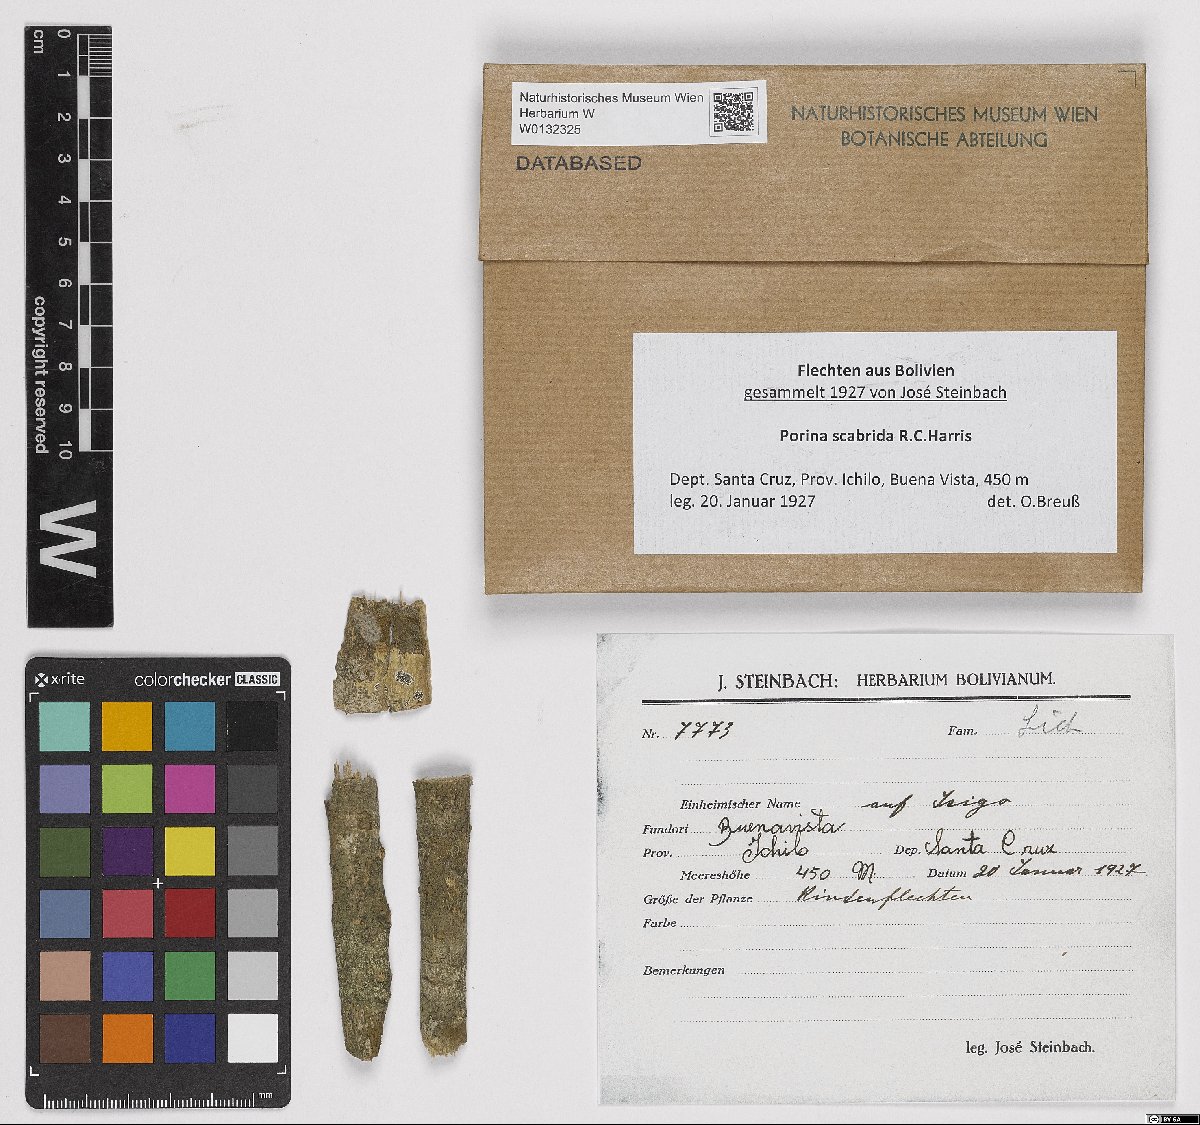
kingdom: Fungi
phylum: Ascomycota
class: Lecanoromycetes
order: Ostropales
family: Porinaceae
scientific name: Porinaceae
